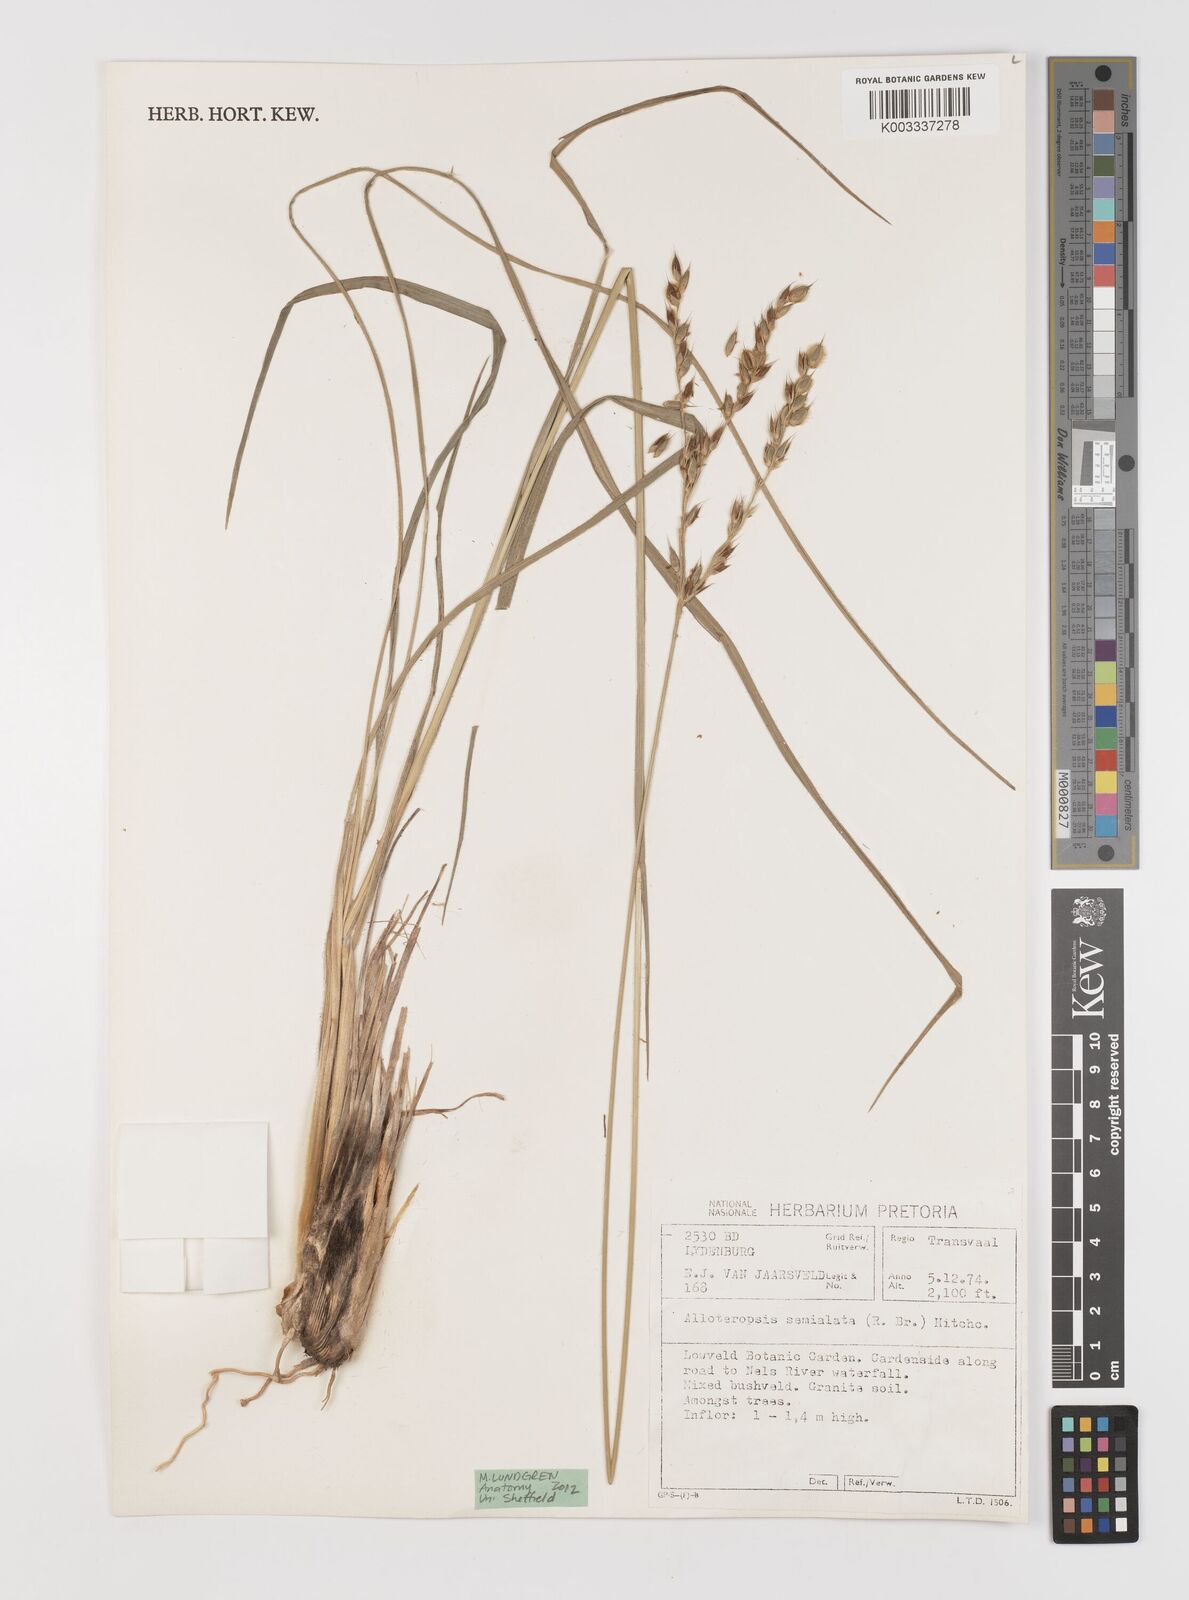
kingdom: Plantae
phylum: Tracheophyta
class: Liliopsida
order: Poales
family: Poaceae
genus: Alloteropsis
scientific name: Alloteropsis semialata
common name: Cockatoo grass
